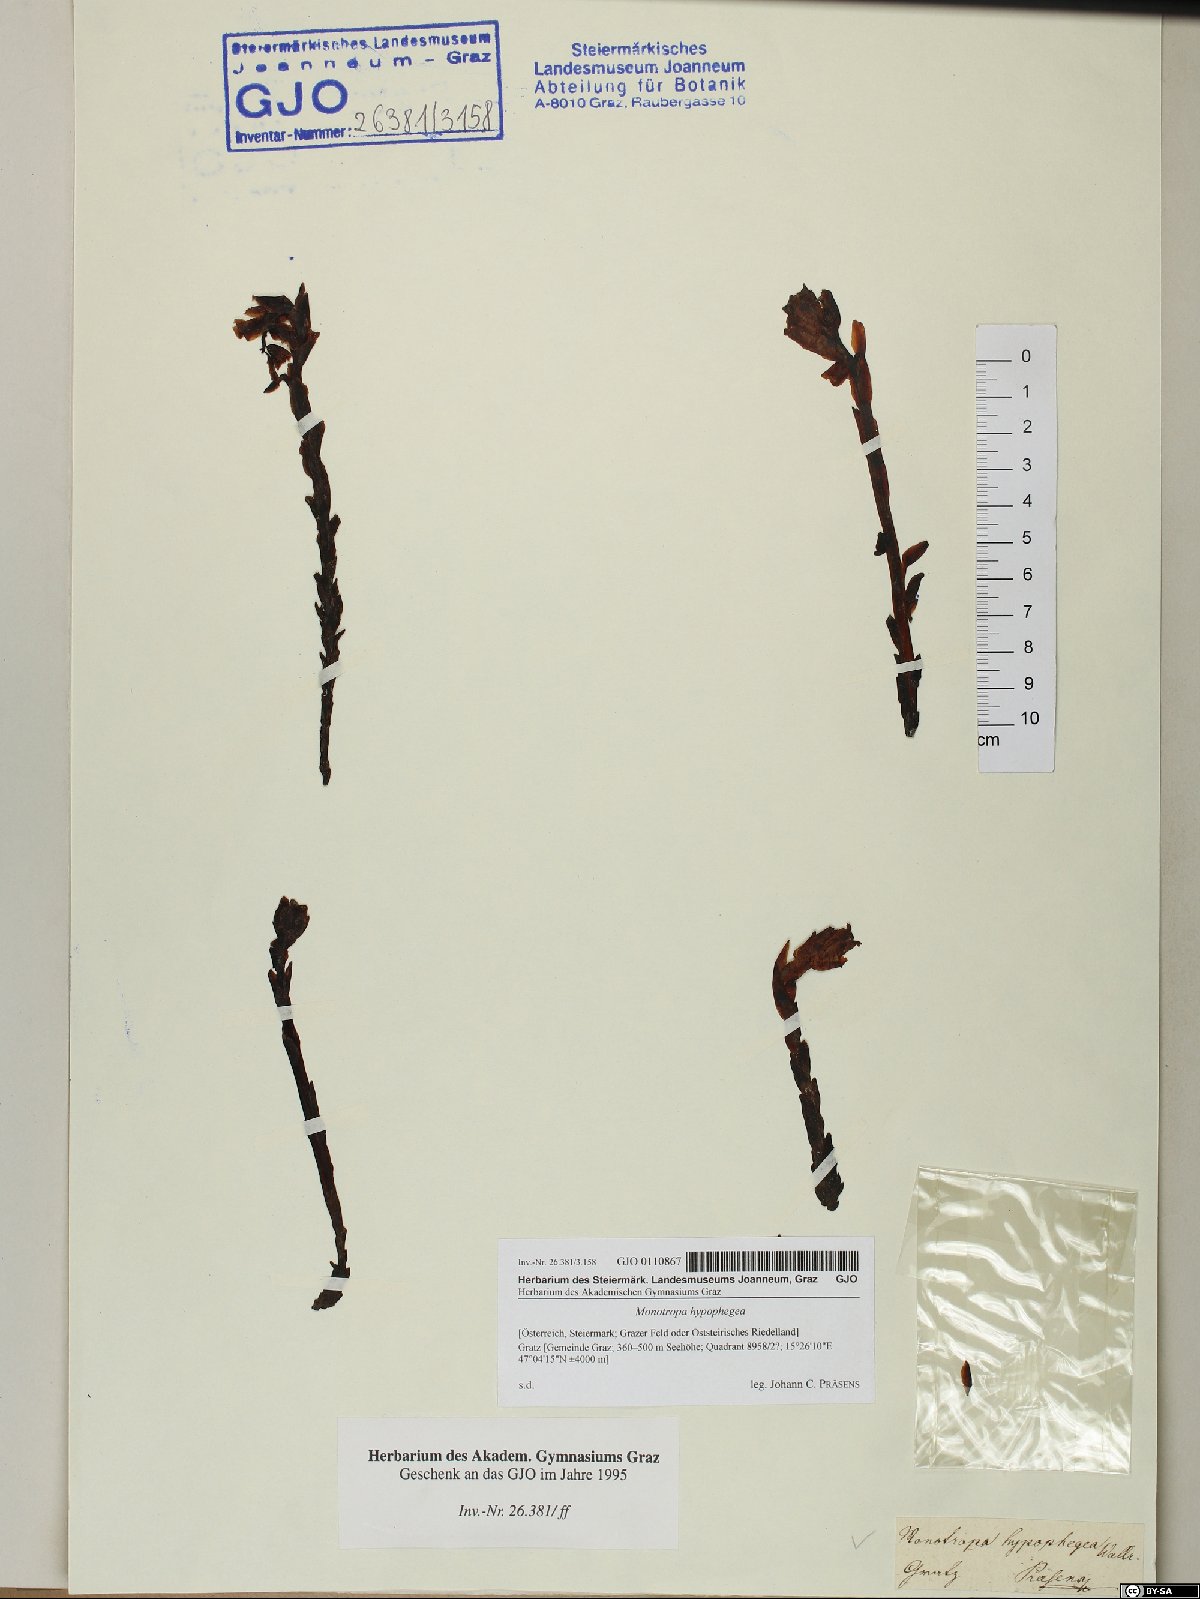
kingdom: Plantae
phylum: Tracheophyta
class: Magnoliopsida
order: Ericales
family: Ericaceae
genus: Hypopitys
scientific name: Hypopitys hypophegea
